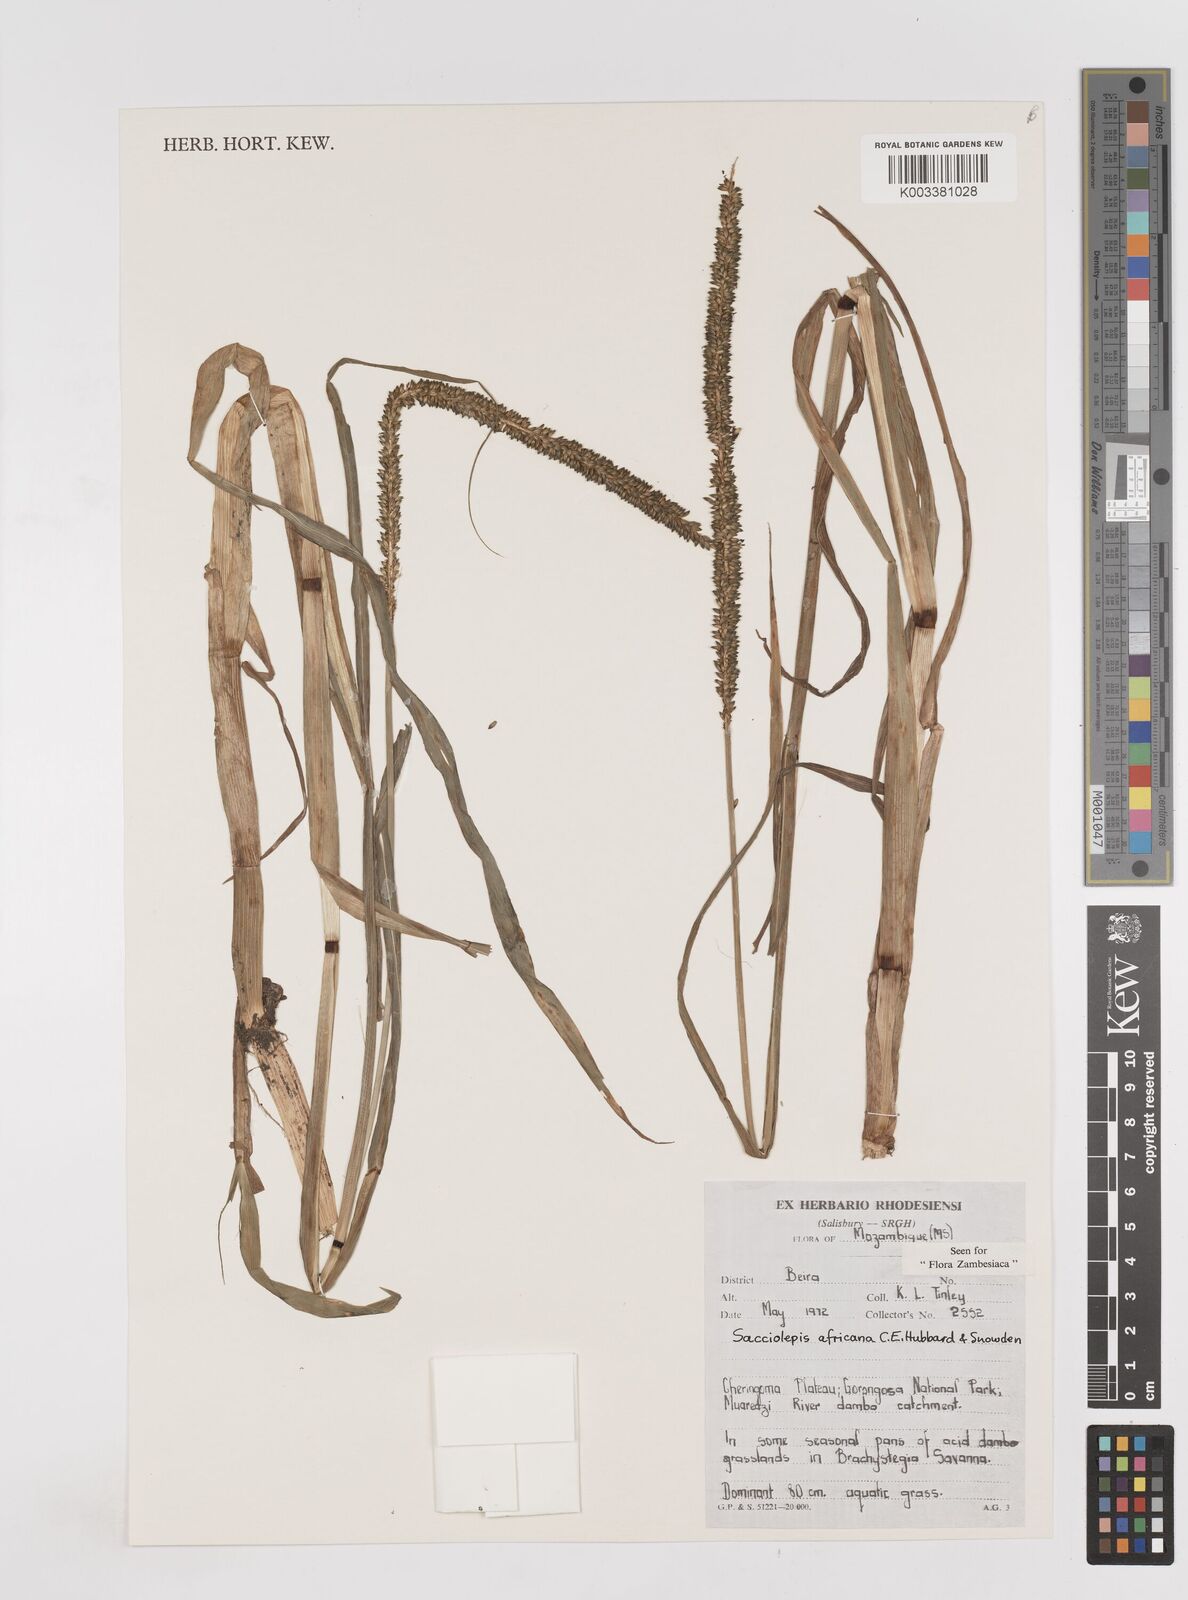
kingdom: Plantae
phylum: Tracheophyta
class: Liliopsida
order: Poales
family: Poaceae
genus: Sacciolepis
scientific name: Sacciolepis africana
